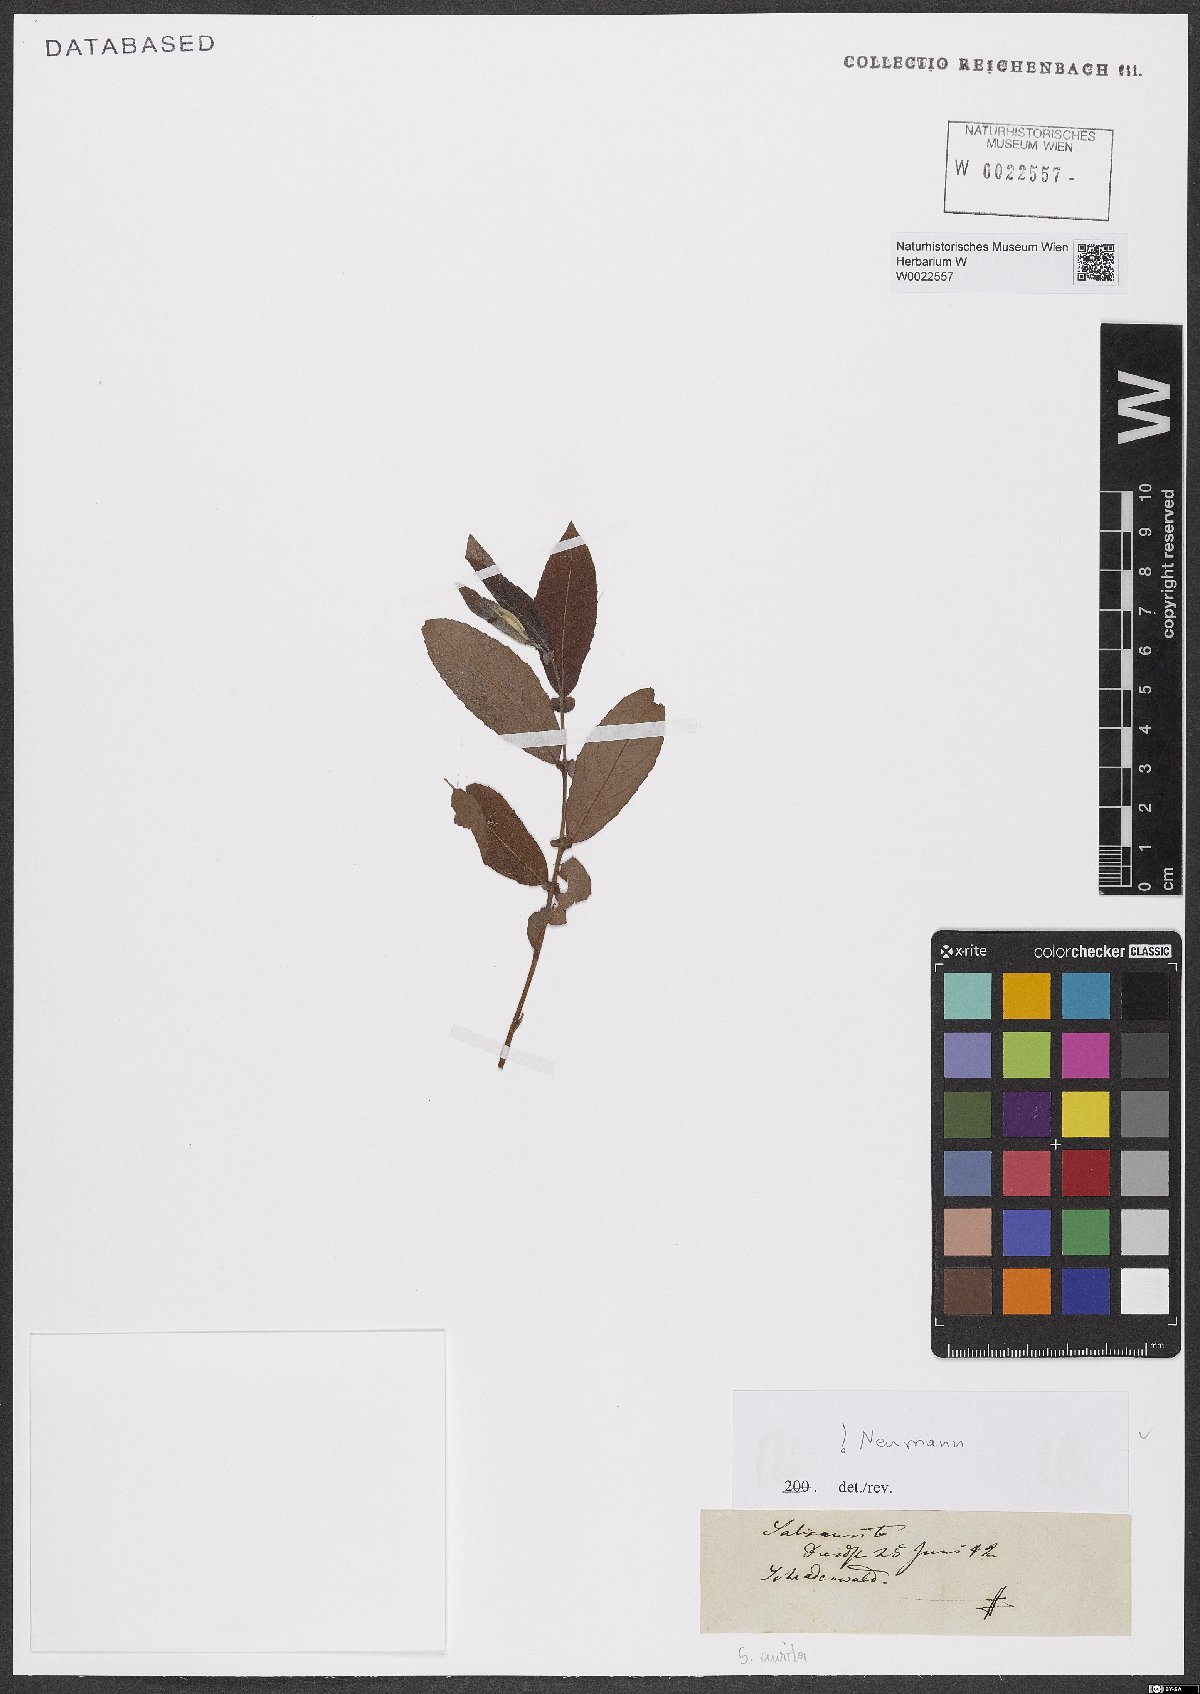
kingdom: Plantae
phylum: Tracheophyta
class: Magnoliopsida
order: Malpighiales
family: Salicaceae
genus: Salix
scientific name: Salix aurita
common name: Eared willow
